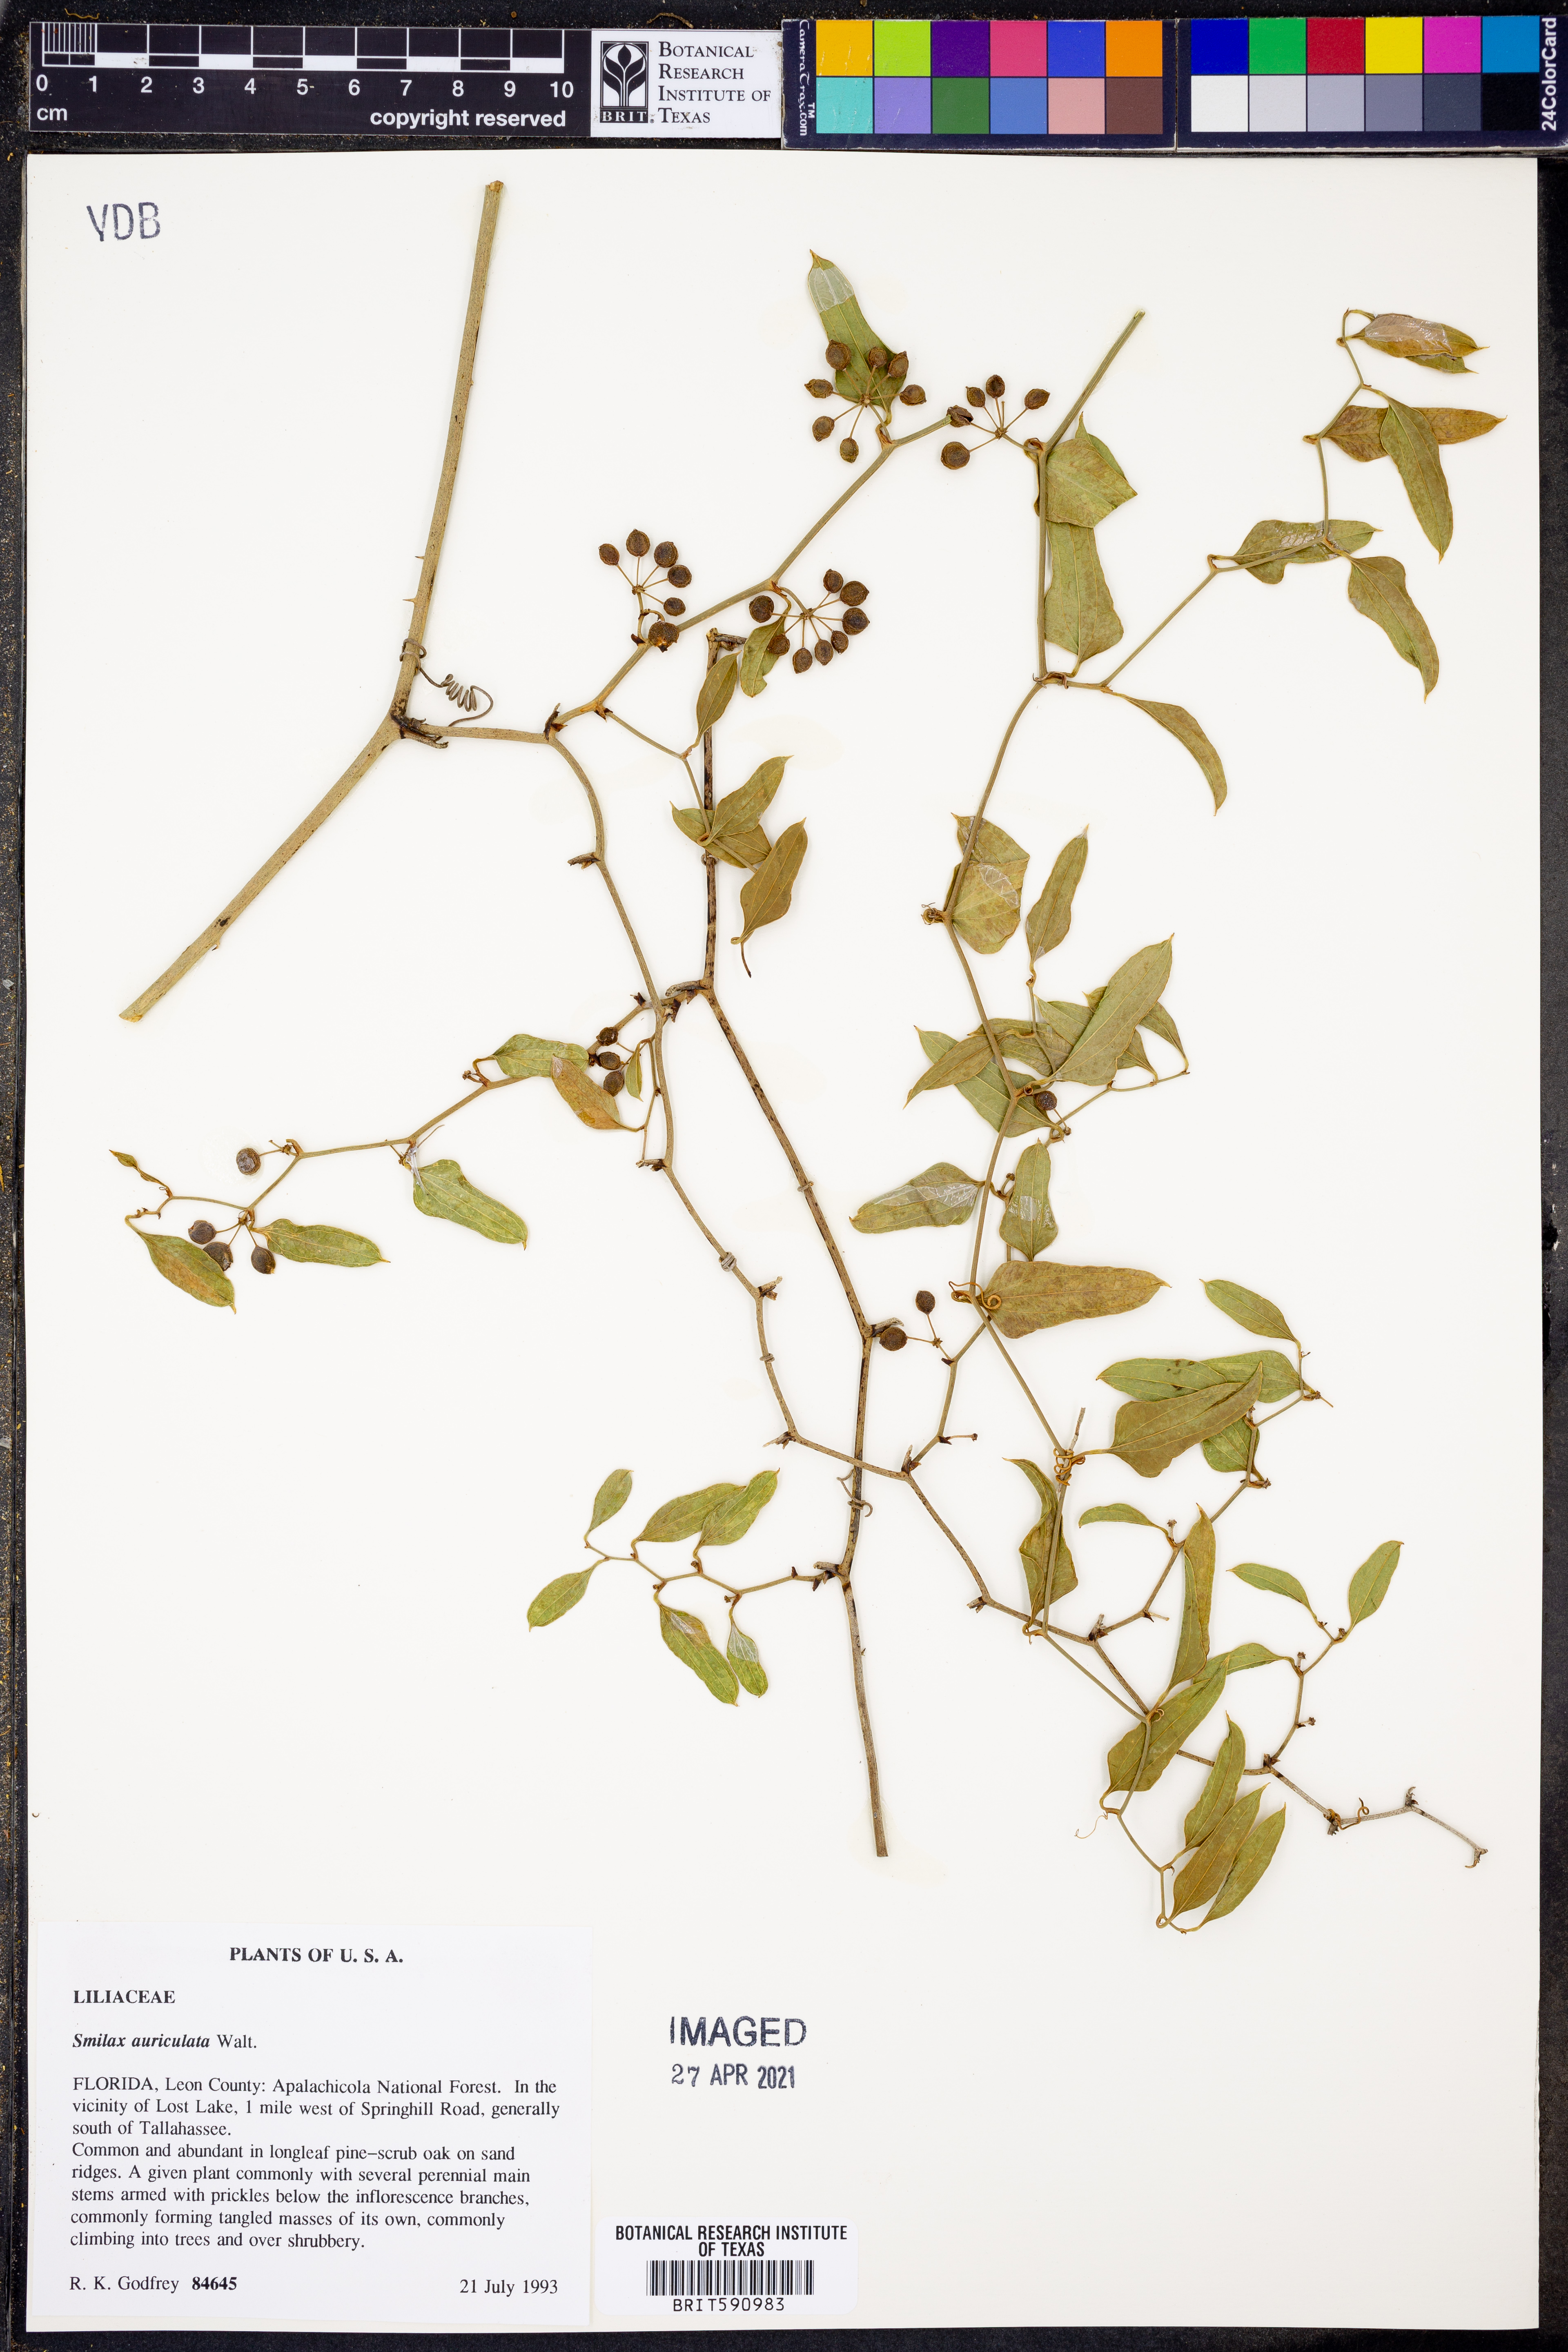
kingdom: Plantae
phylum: Tracheophyta
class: Liliopsida
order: Liliales
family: Smilacaceae
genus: Smilax
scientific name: Smilax auriculata
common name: Wild bamboo
